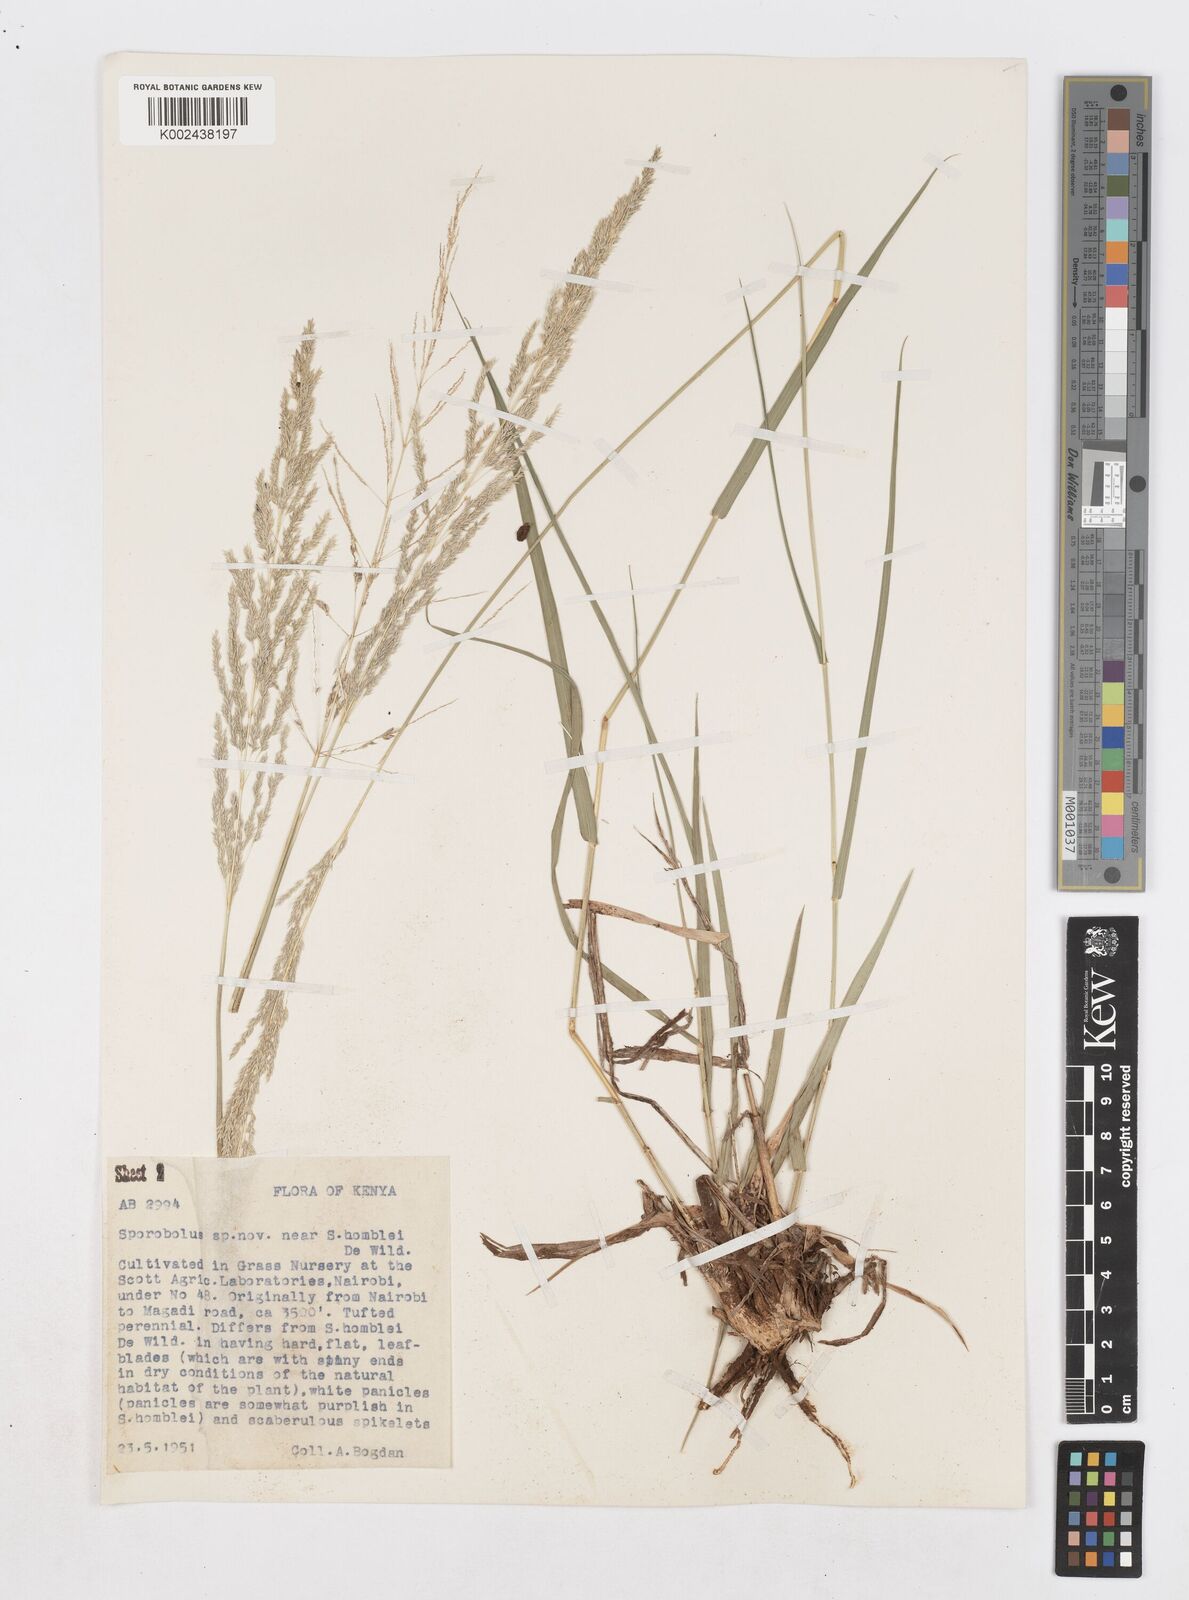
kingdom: Plantae
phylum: Tracheophyta
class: Liliopsida
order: Poales
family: Poaceae
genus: Sporobolus
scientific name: Sporobolus ioclados
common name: Pan dropseed
